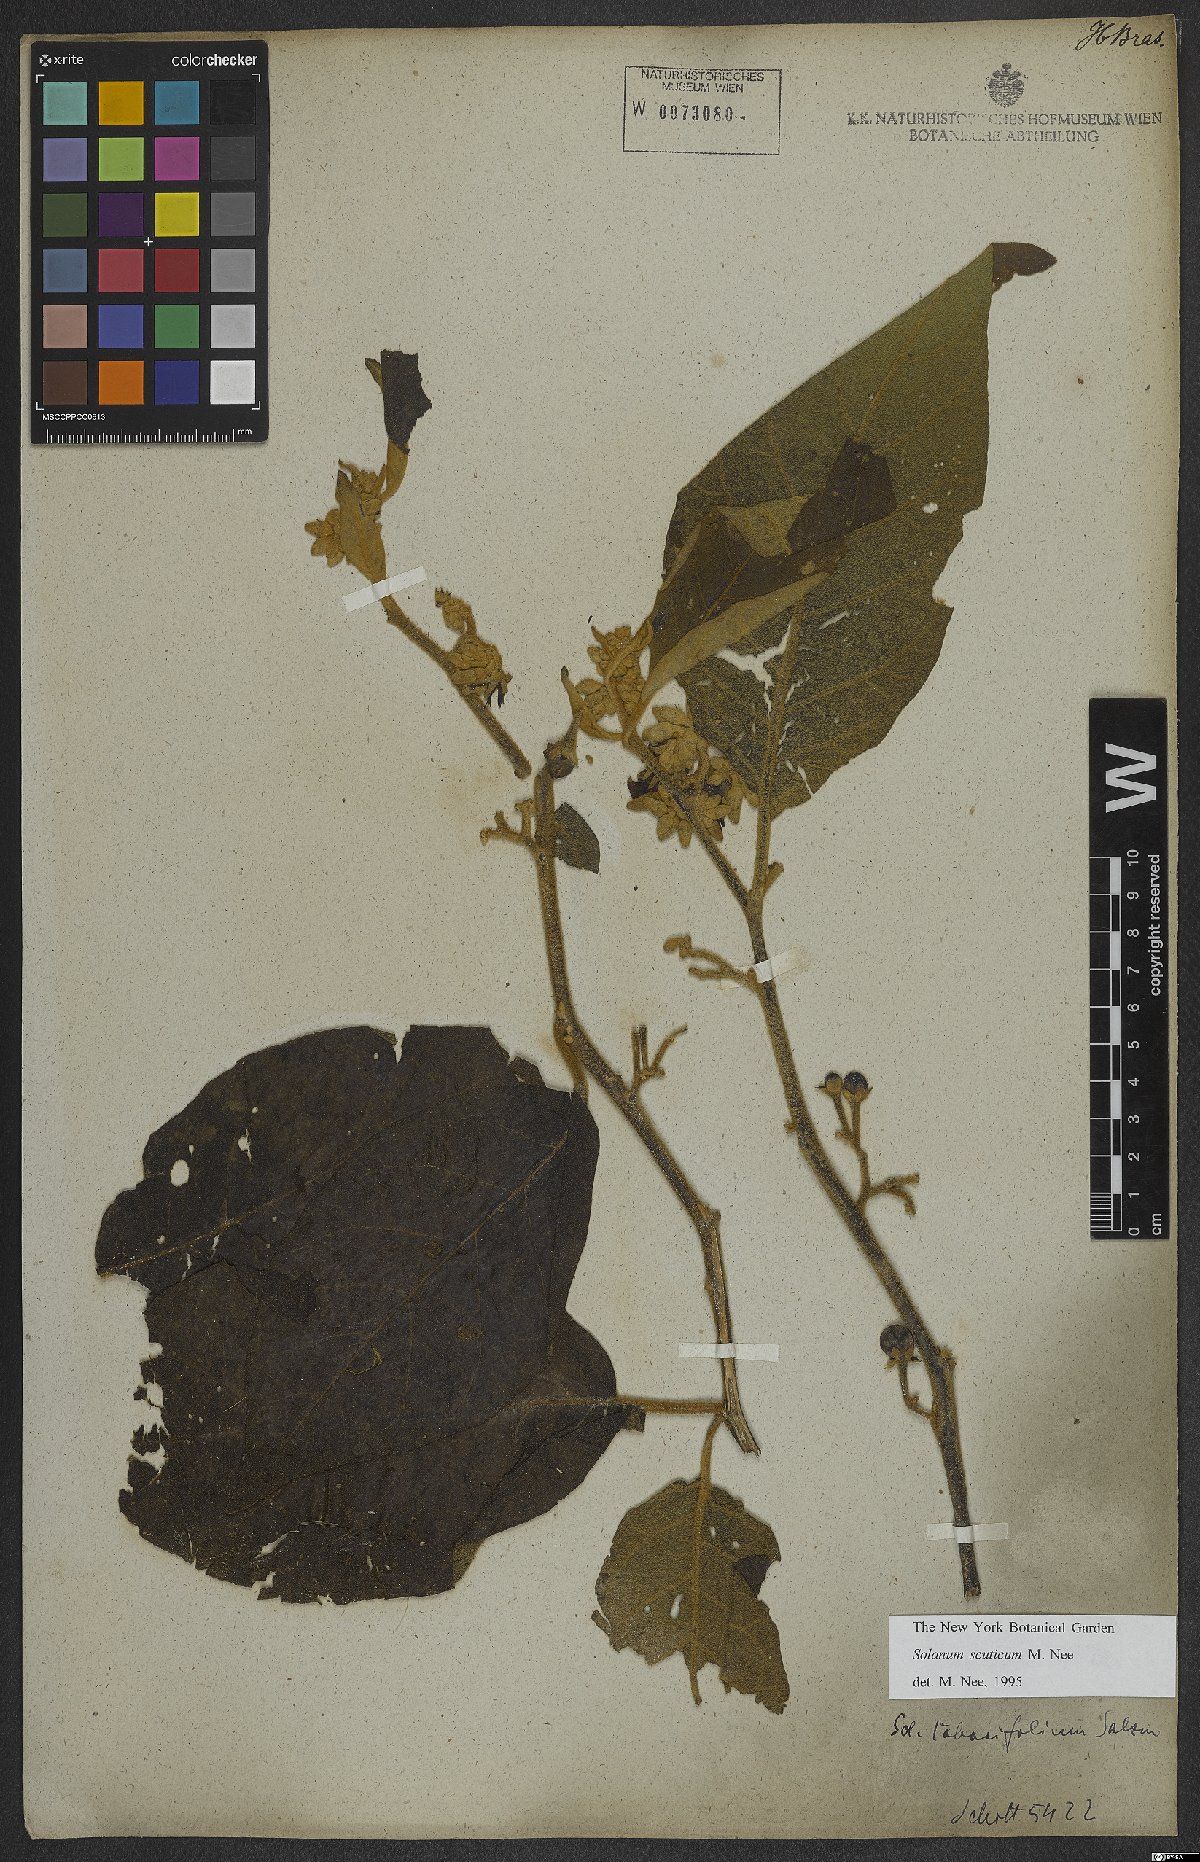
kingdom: Plantae
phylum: Tracheophyta
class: Magnoliopsida
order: Solanales
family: Solanaceae
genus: Solanum
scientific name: Solanum scuticum
